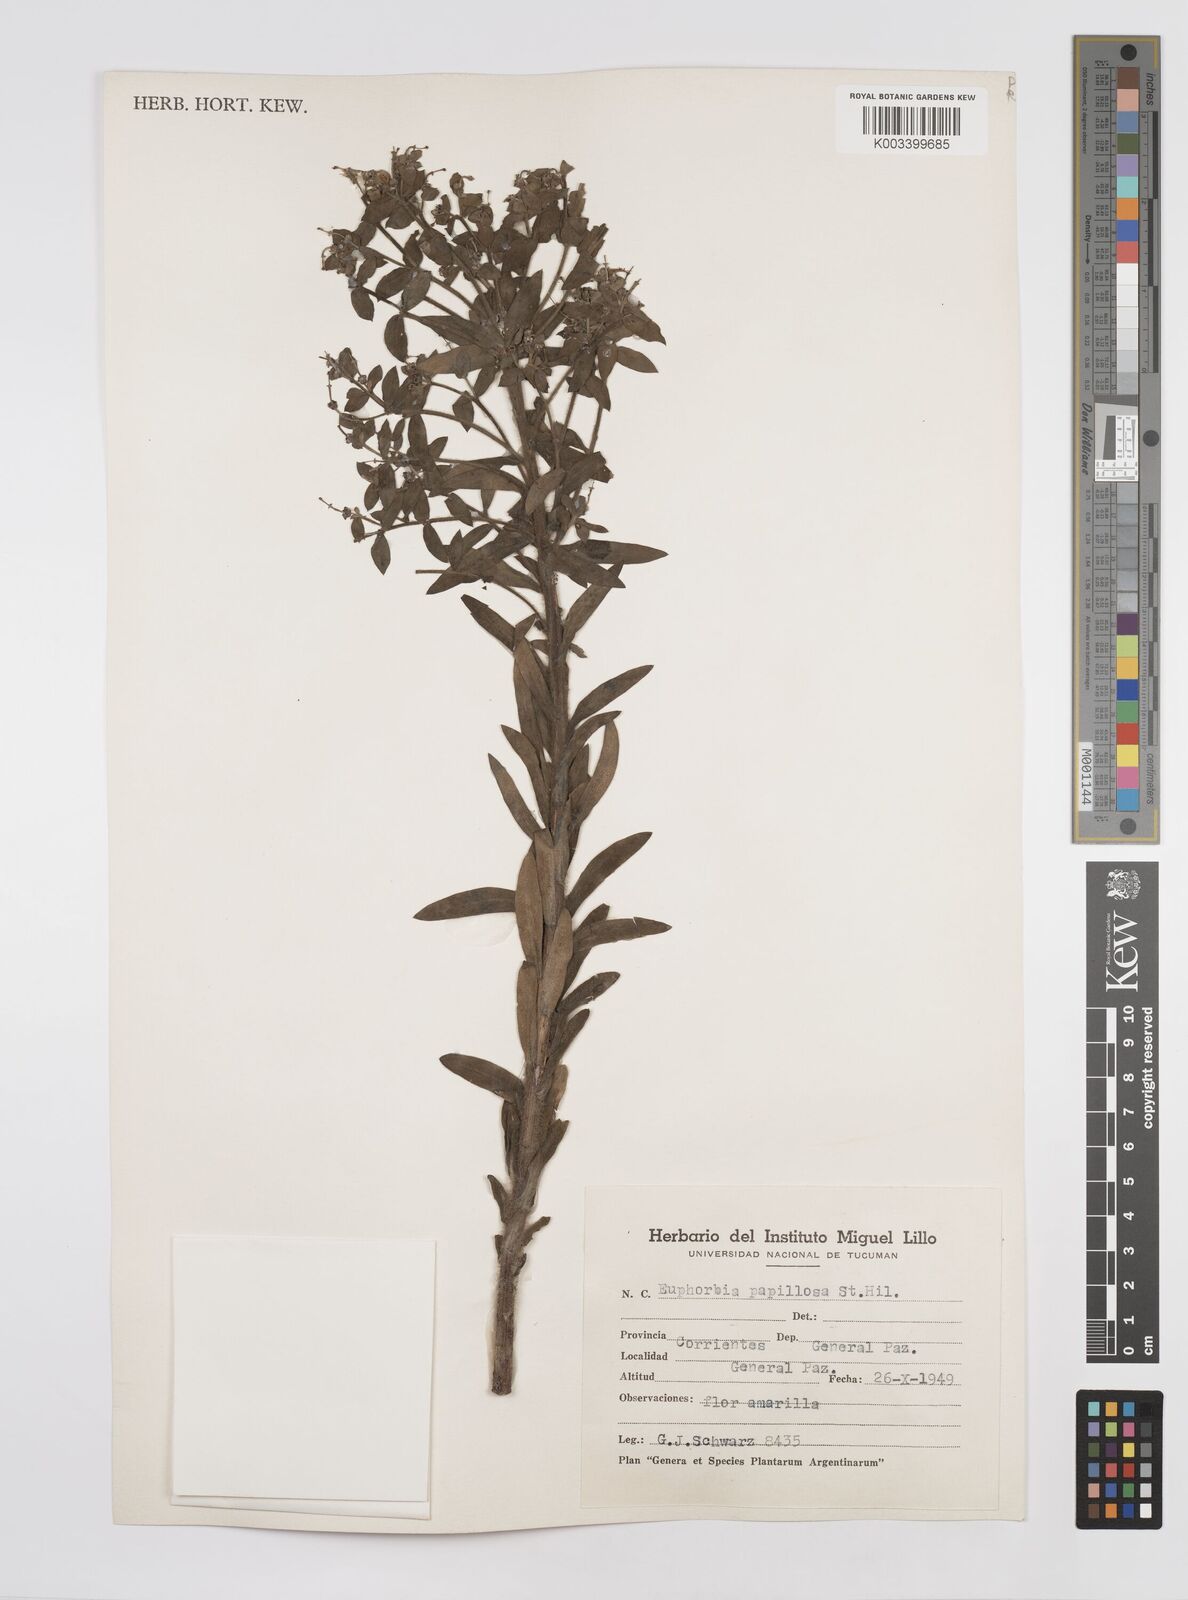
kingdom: Plantae
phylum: Tracheophyta
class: Magnoliopsida
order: Malpighiales
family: Euphorbiaceae
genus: Euphorbia
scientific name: Euphorbia
